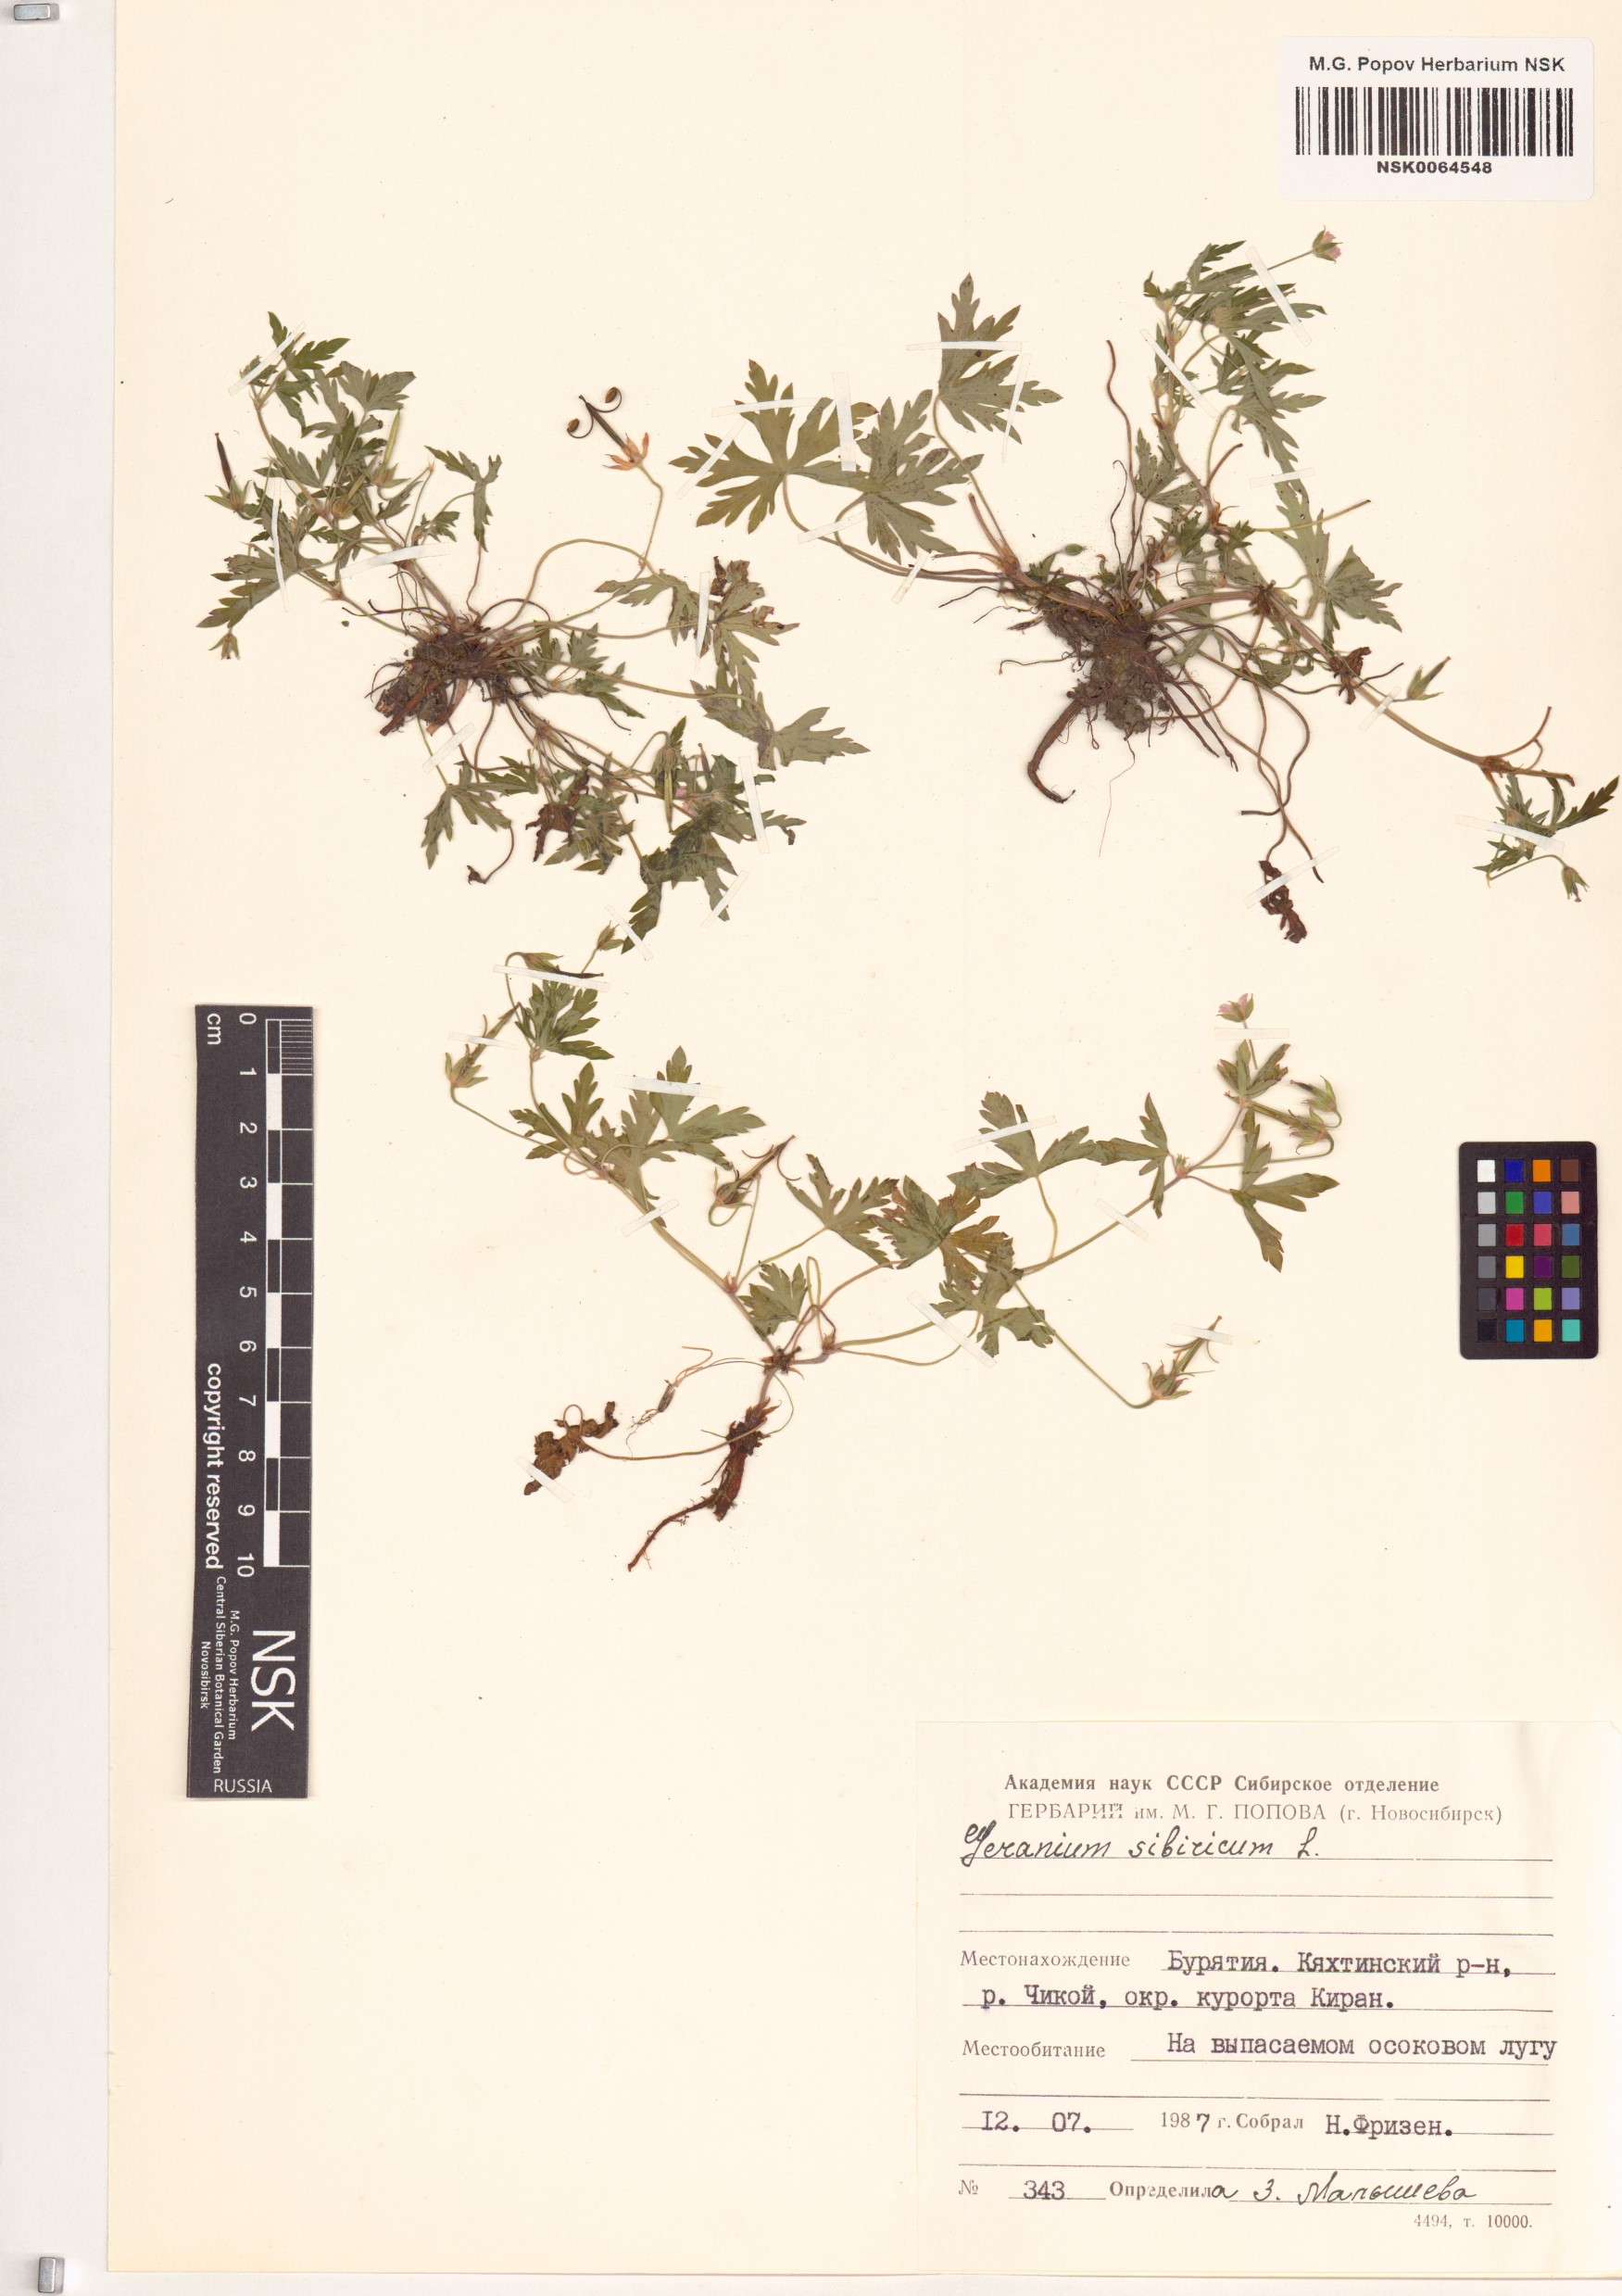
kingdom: Plantae
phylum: Tracheophyta
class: Magnoliopsida
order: Geraniales
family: Geraniaceae
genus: Geranium
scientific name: Geranium sibiricum
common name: Siberian crane's-bill
